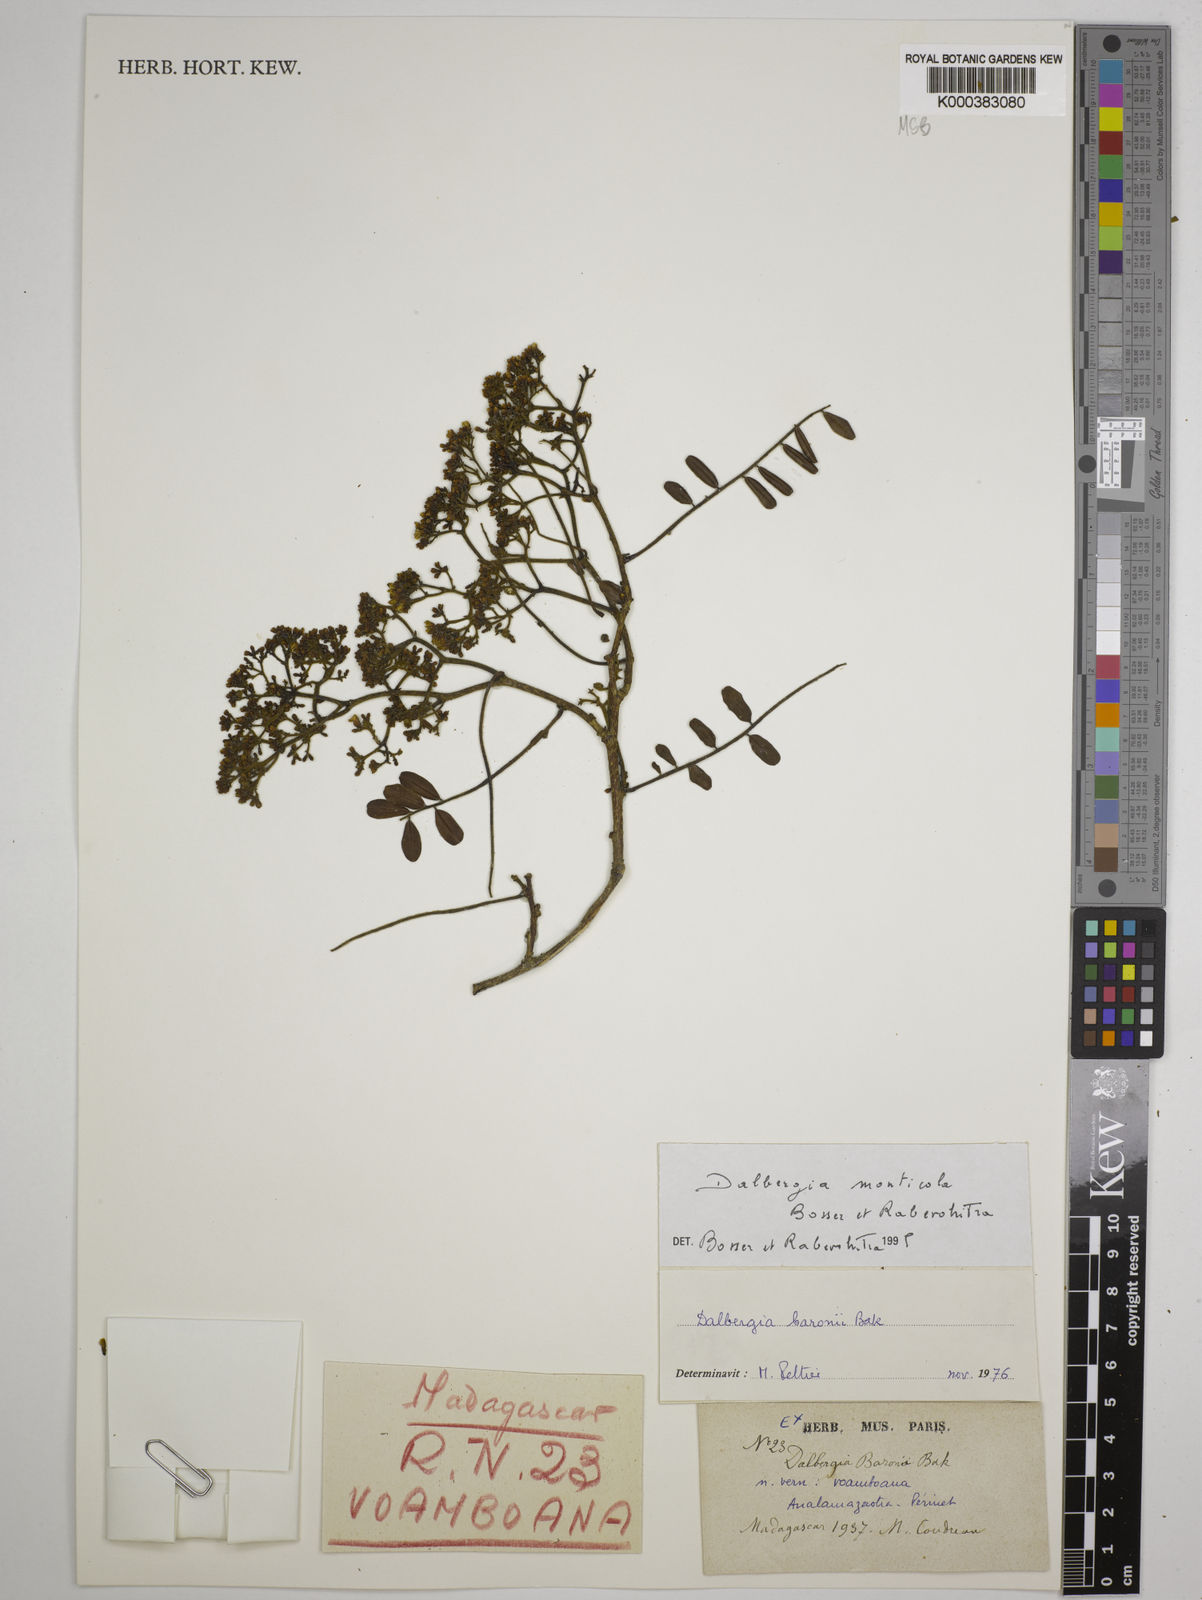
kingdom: Plantae
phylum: Tracheophyta
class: Magnoliopsida
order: Fabales
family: Fabaceae
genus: Dalbergia
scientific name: Dalbergia monticola
